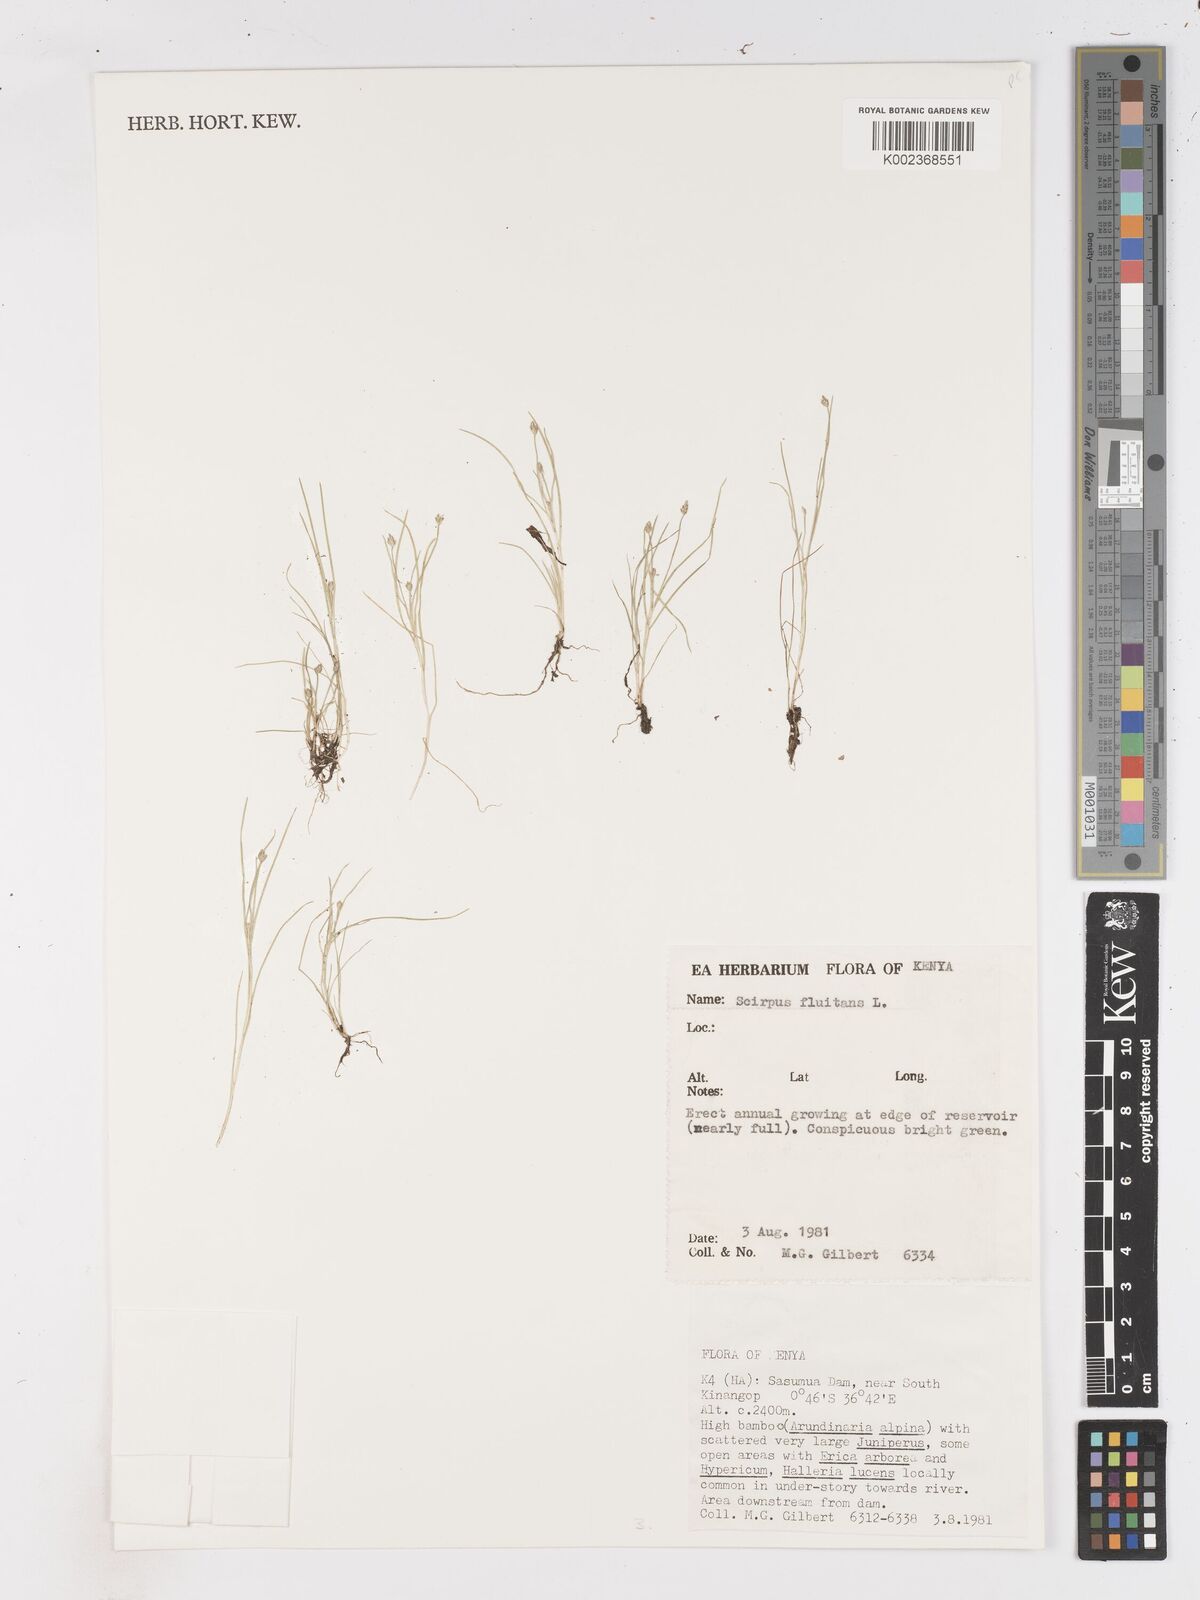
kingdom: Plantae
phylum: Tracheophyta
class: Liliopsida
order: Poales
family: Cyperaceae
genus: Isolepis
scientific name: Isolepis fluitans
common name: Floating club-rush
